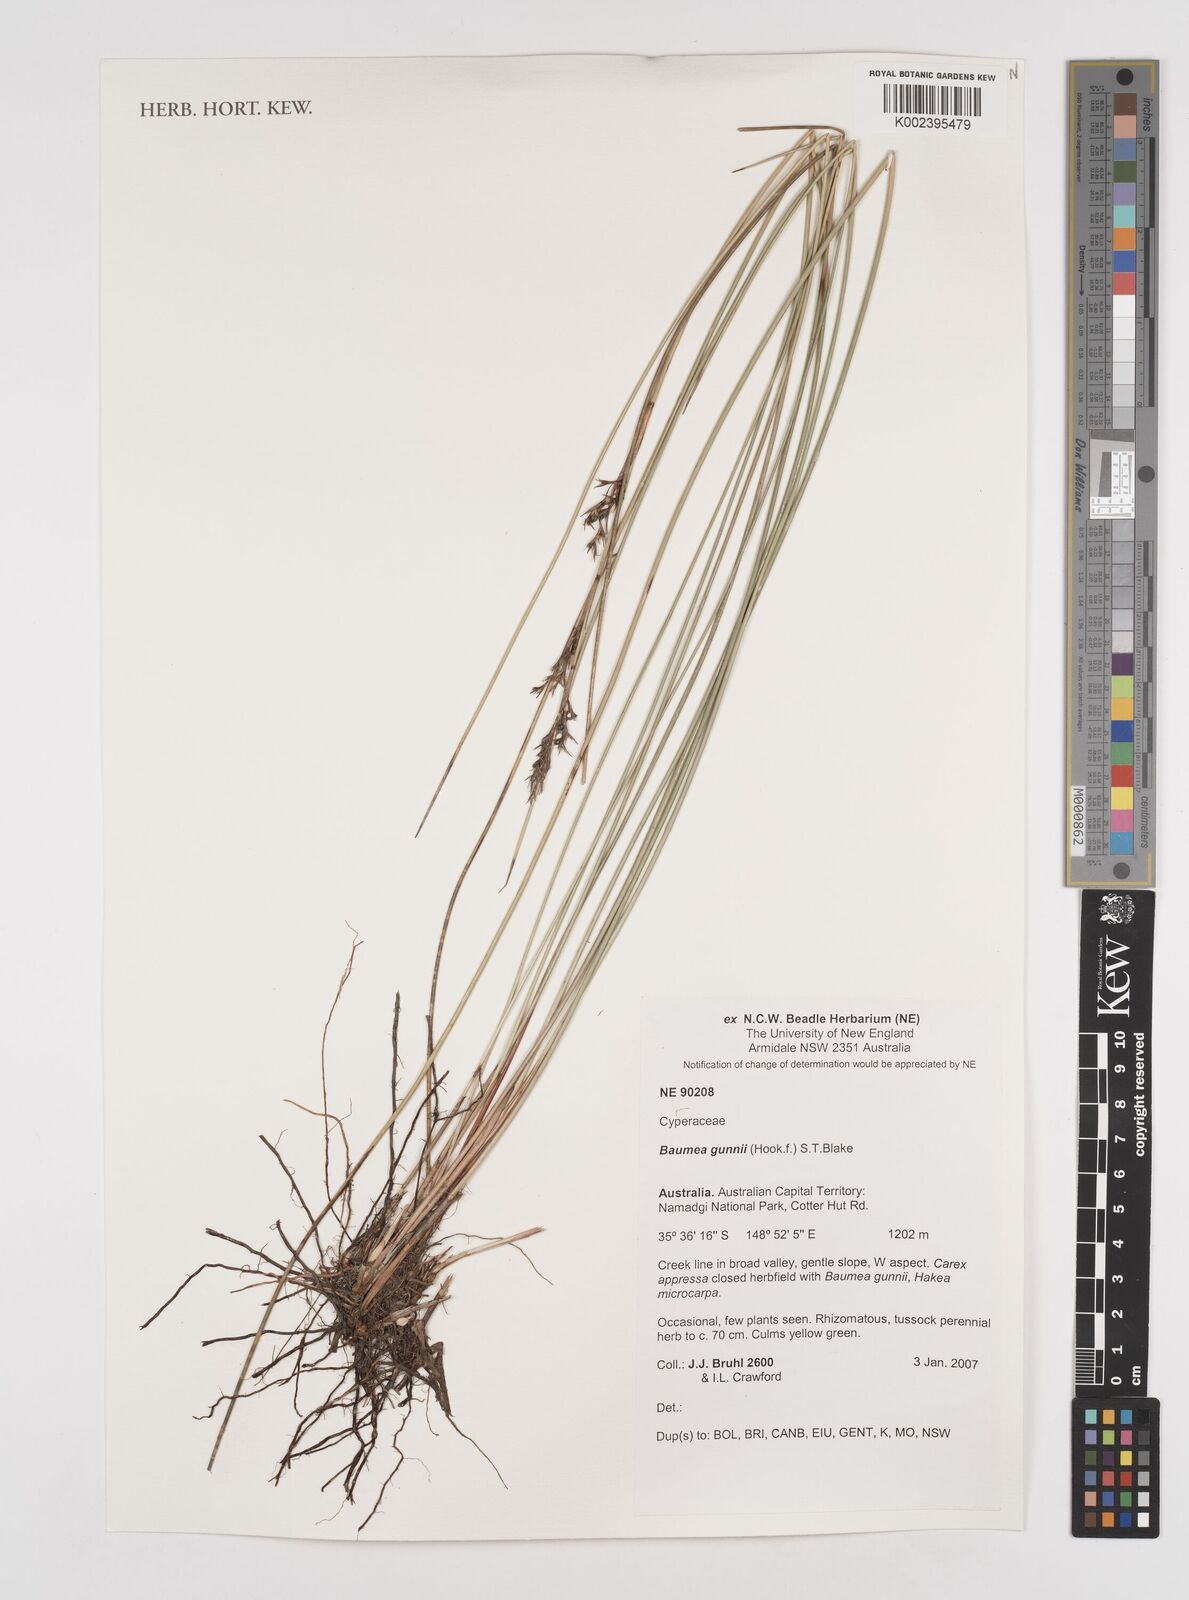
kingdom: Plantae
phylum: Tracheophyta
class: Liliopsida
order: Poales
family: Cyperaceae
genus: Machaerina
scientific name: Machaerina gunnii
